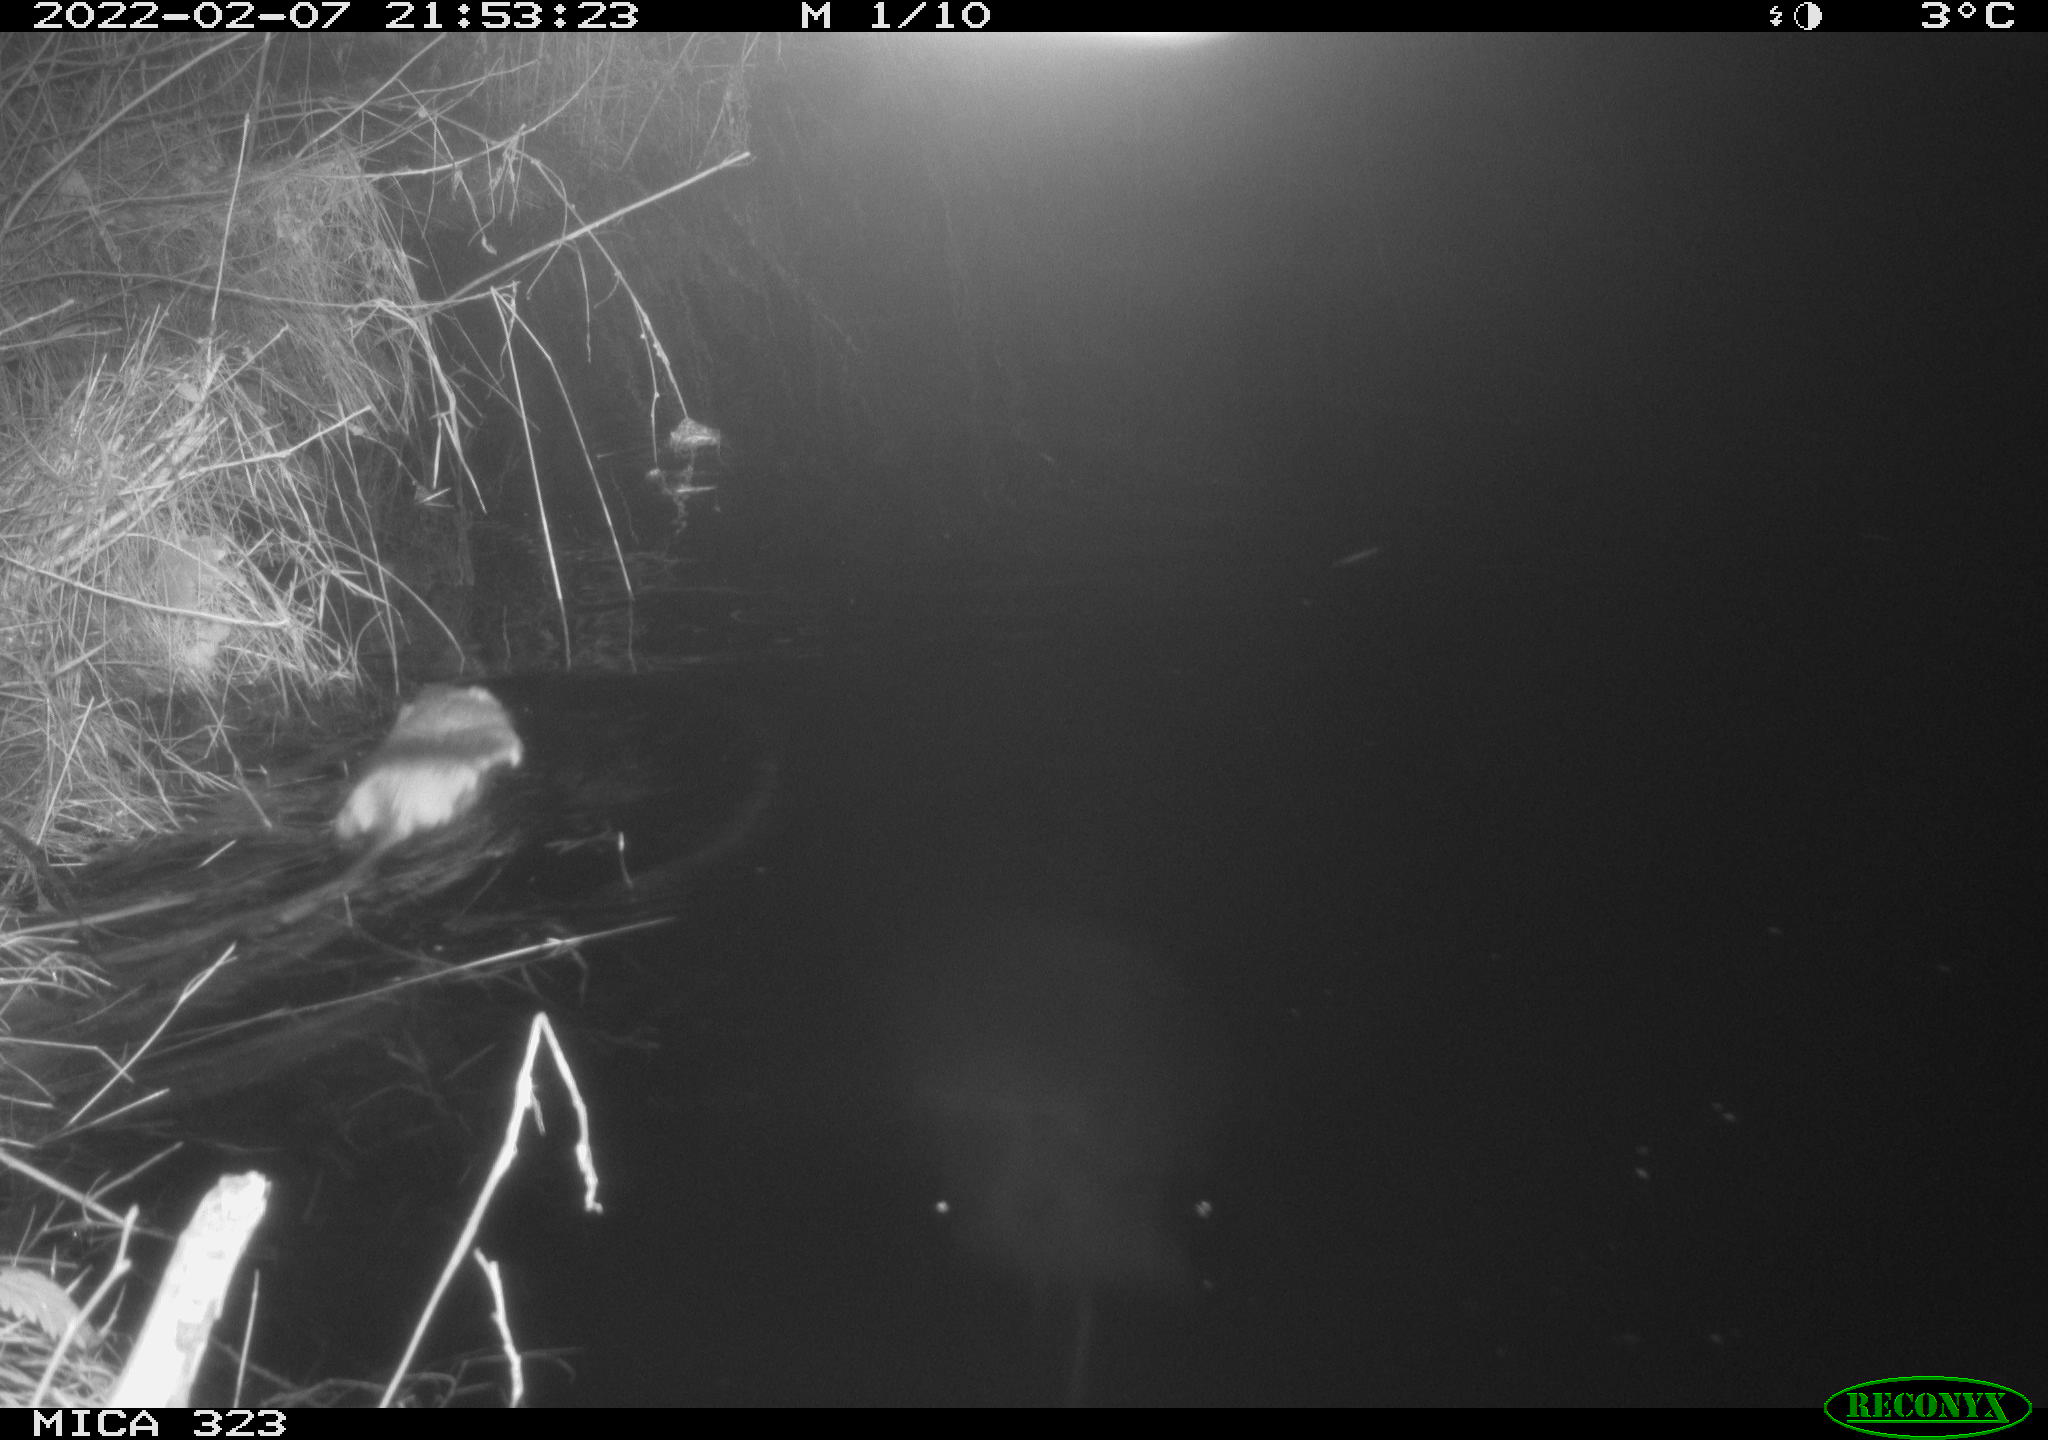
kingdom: Animalia
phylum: Chordata
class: Mammalia
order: Rodentia
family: Cricetidae
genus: Ondatra
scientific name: Ondatra zibethicus
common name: Muskrat
